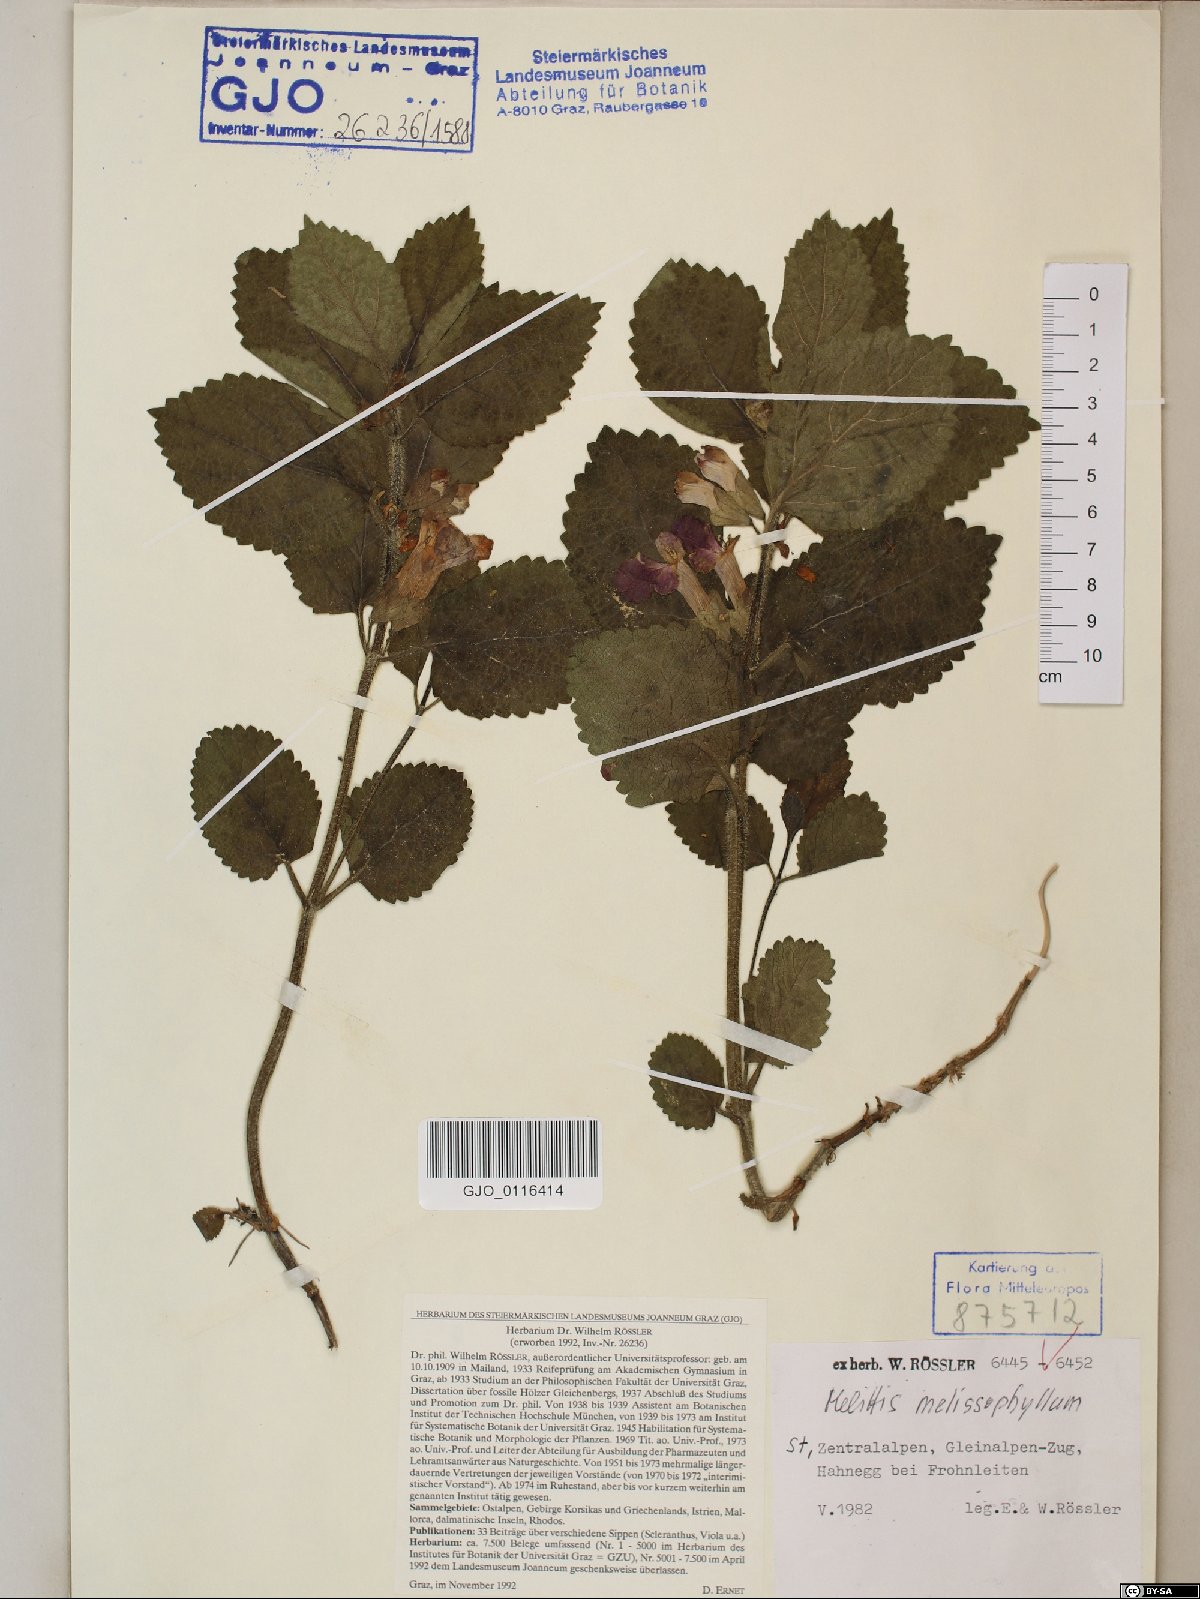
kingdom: Plantae
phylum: Tracheophyta
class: Magnoliopsida
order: Lamiales
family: Lamiaceae
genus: Melittis
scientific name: Melittis melissophyllum
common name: Bastard balm
